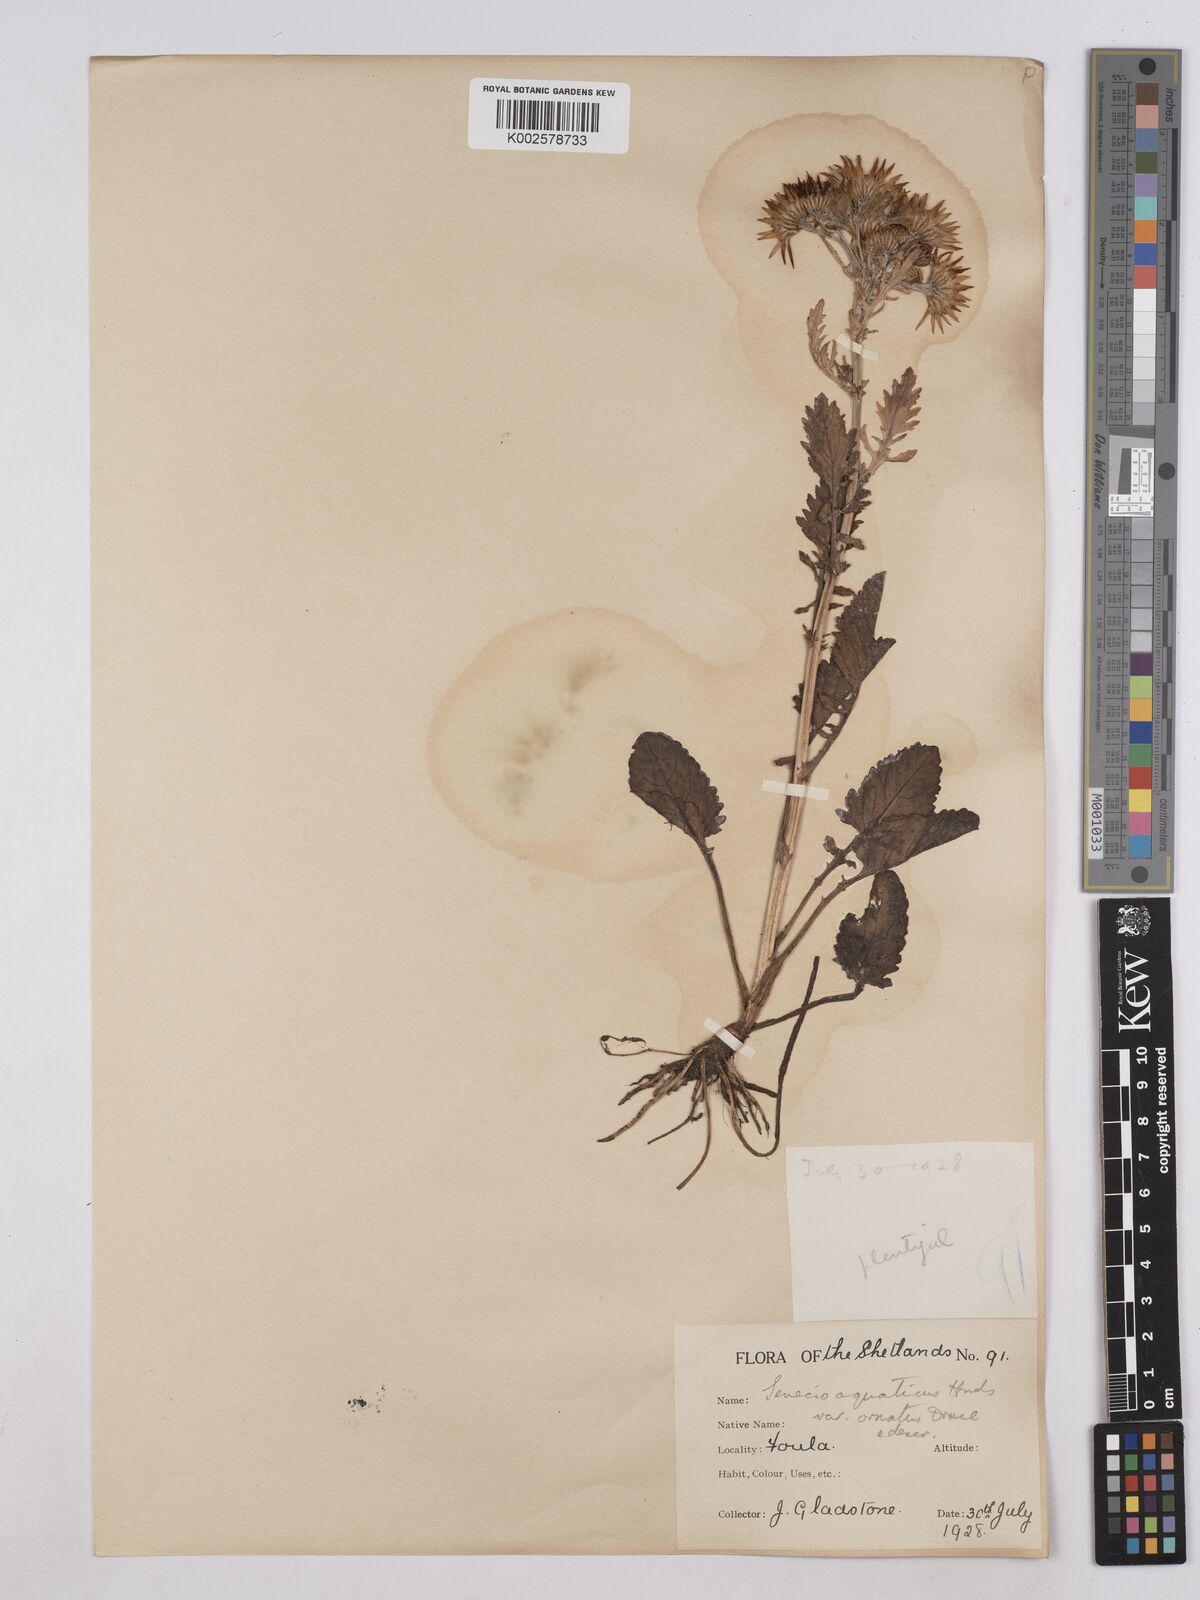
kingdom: Plantae
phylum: Tracheophyta
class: Magnoliopsida
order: Asterales
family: Asteraceae
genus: Jacobaea
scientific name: Jacobaea aquatica
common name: Water ragwort
